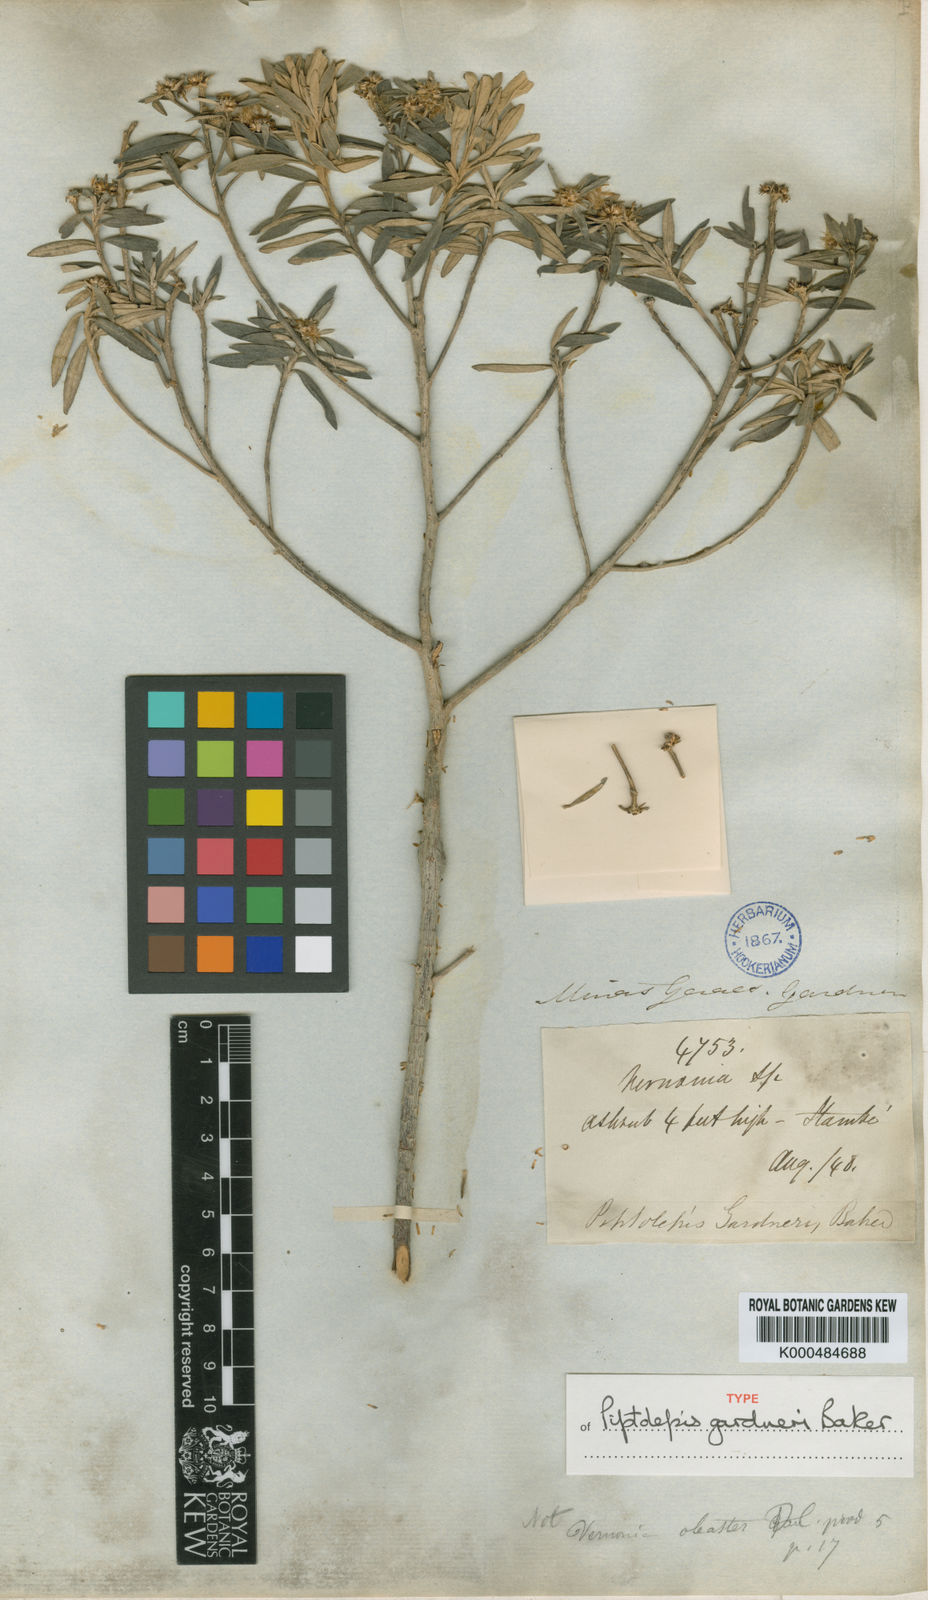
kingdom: Plantae
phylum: Tracheophyta
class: Magnoliopsida
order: Asterales
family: Asteraceae
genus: Piptolepis
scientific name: Piptolepis gardneri
